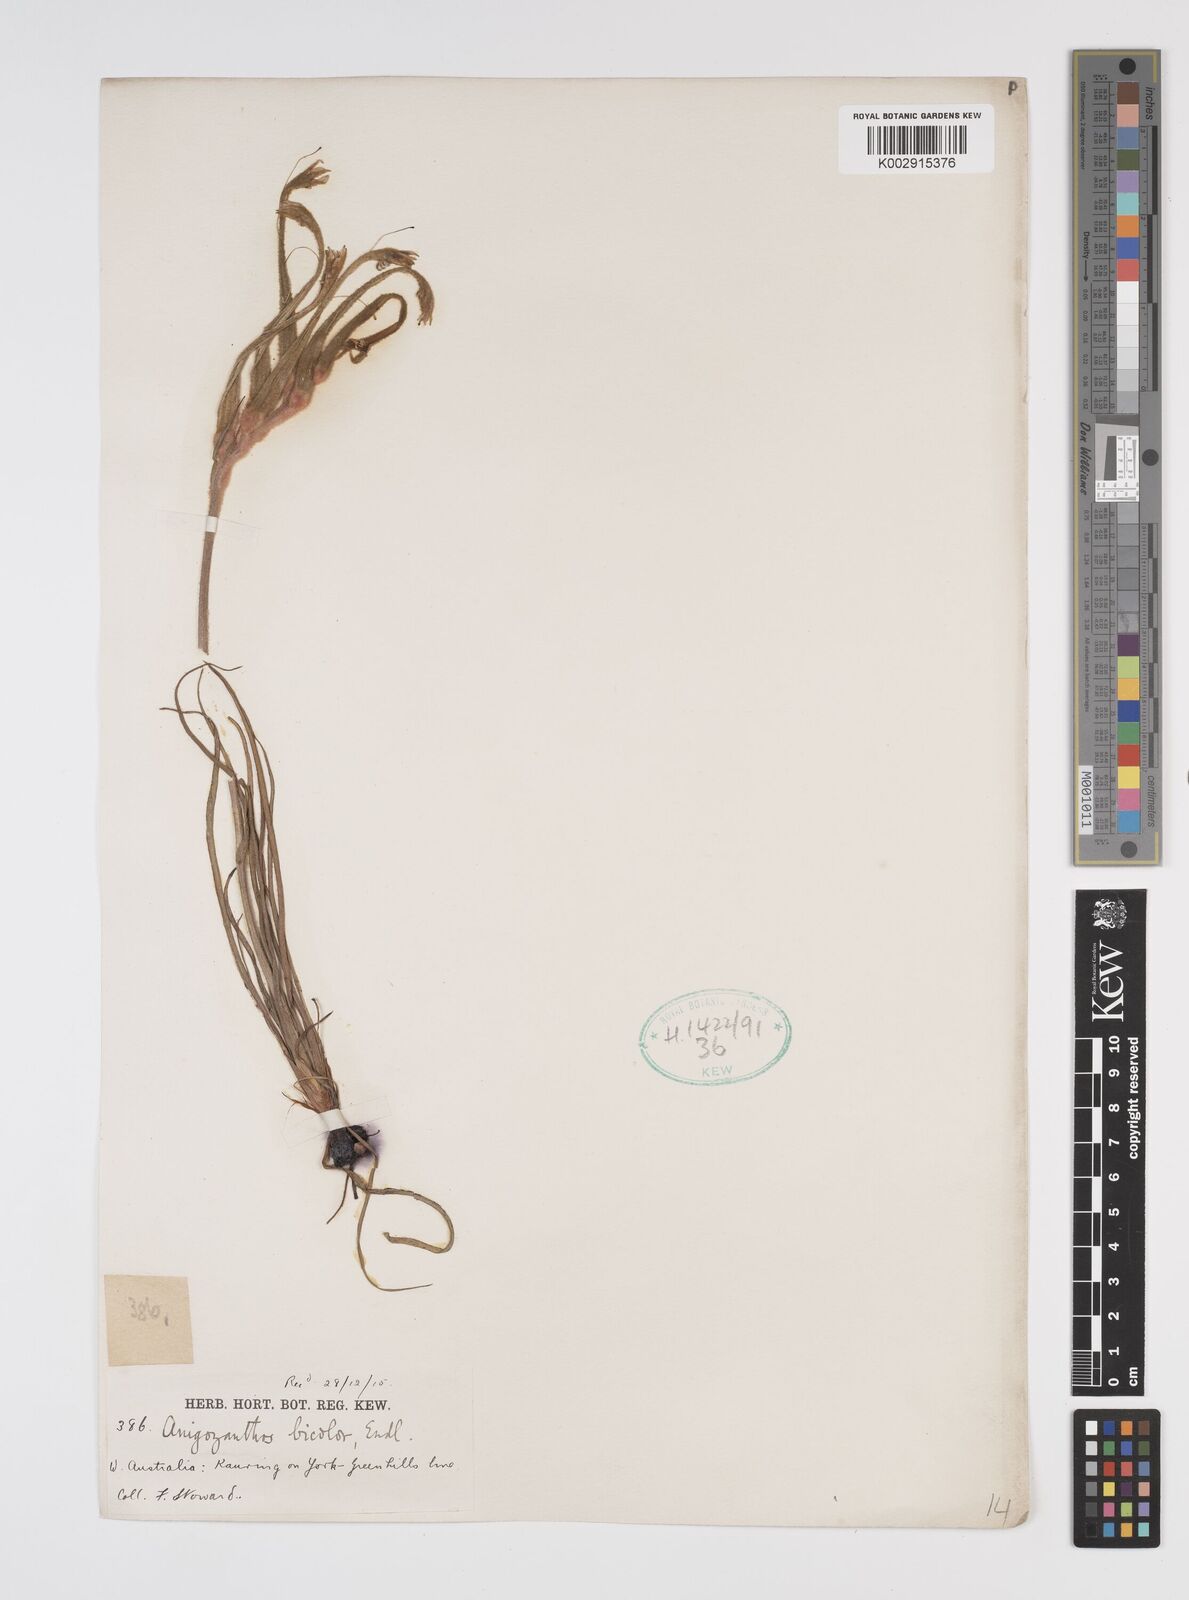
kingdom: Plantae
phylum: Tracheophyta
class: Liliopsida
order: Commelinales
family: Haemodoraceae
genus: Anigozanthos
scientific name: Anigozanthos bicolor
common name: Little kangaroo-paw
